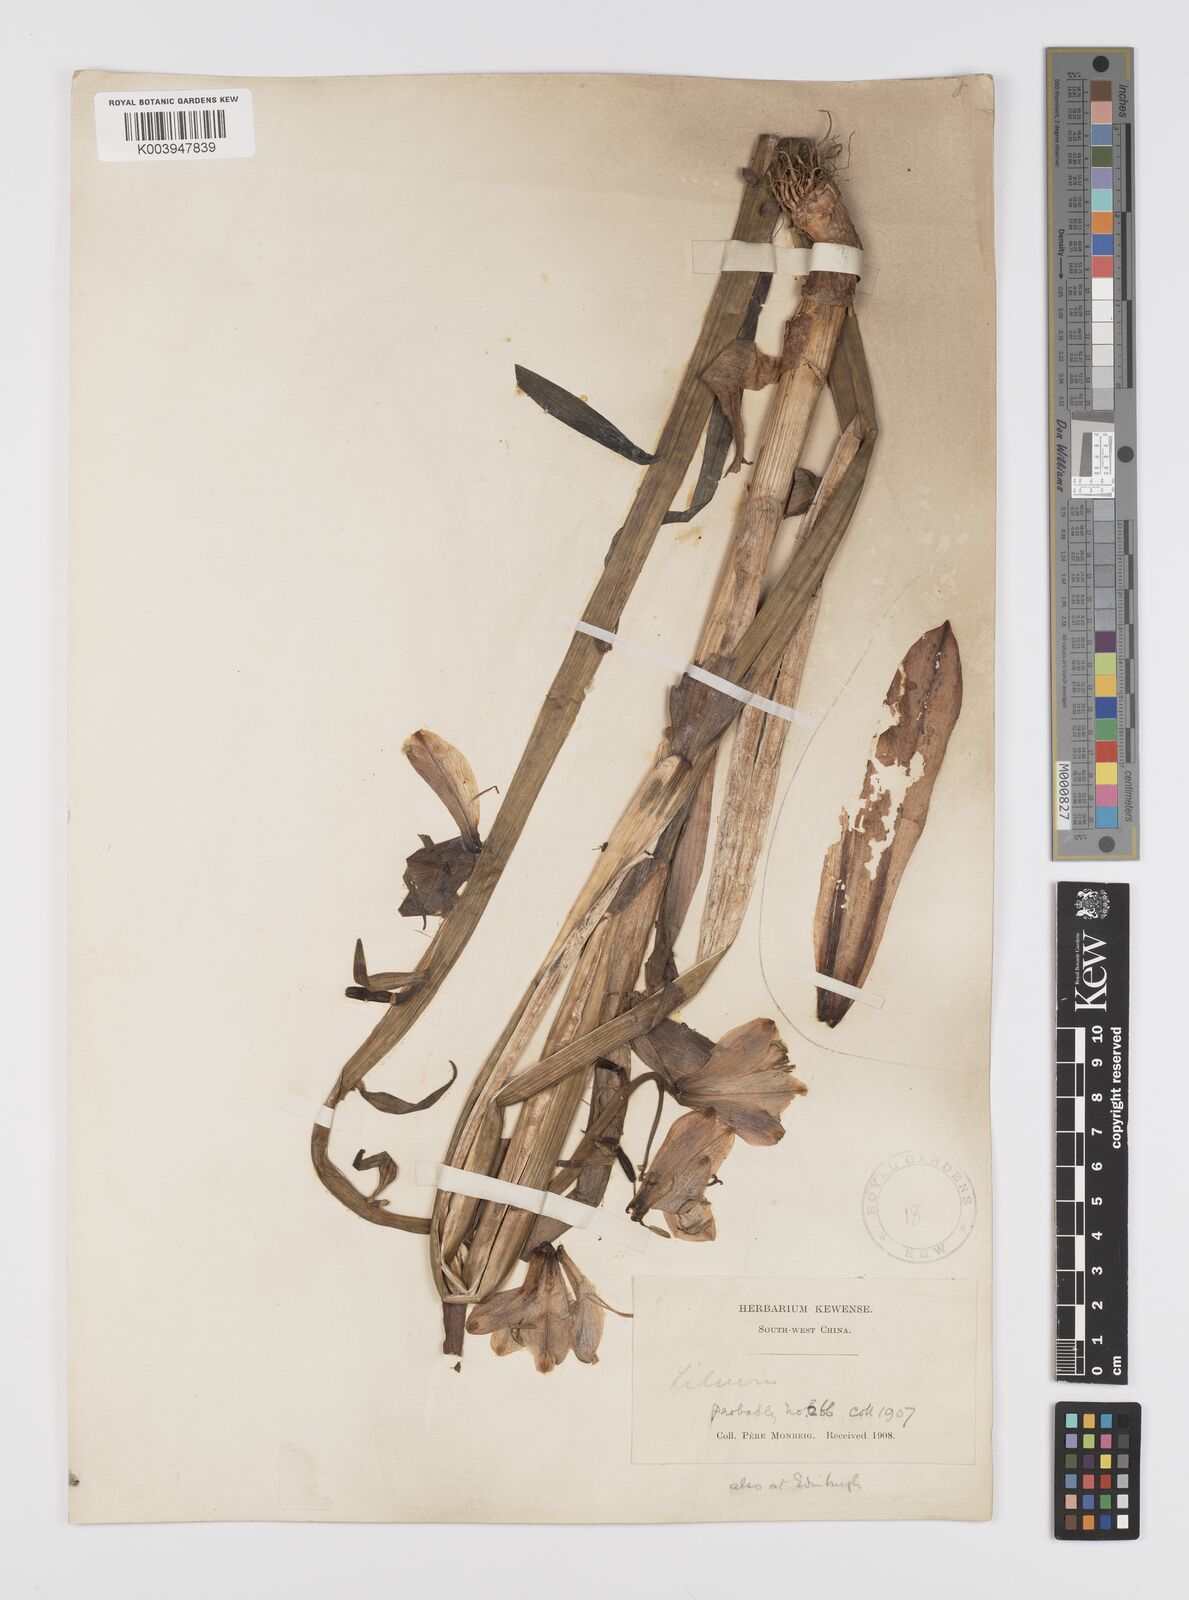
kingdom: Plantae
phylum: Tracheophyta
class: Liliopsida
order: Liliales
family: Liliaceae
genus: Notholirion
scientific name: Notholirion bulbuliferum
